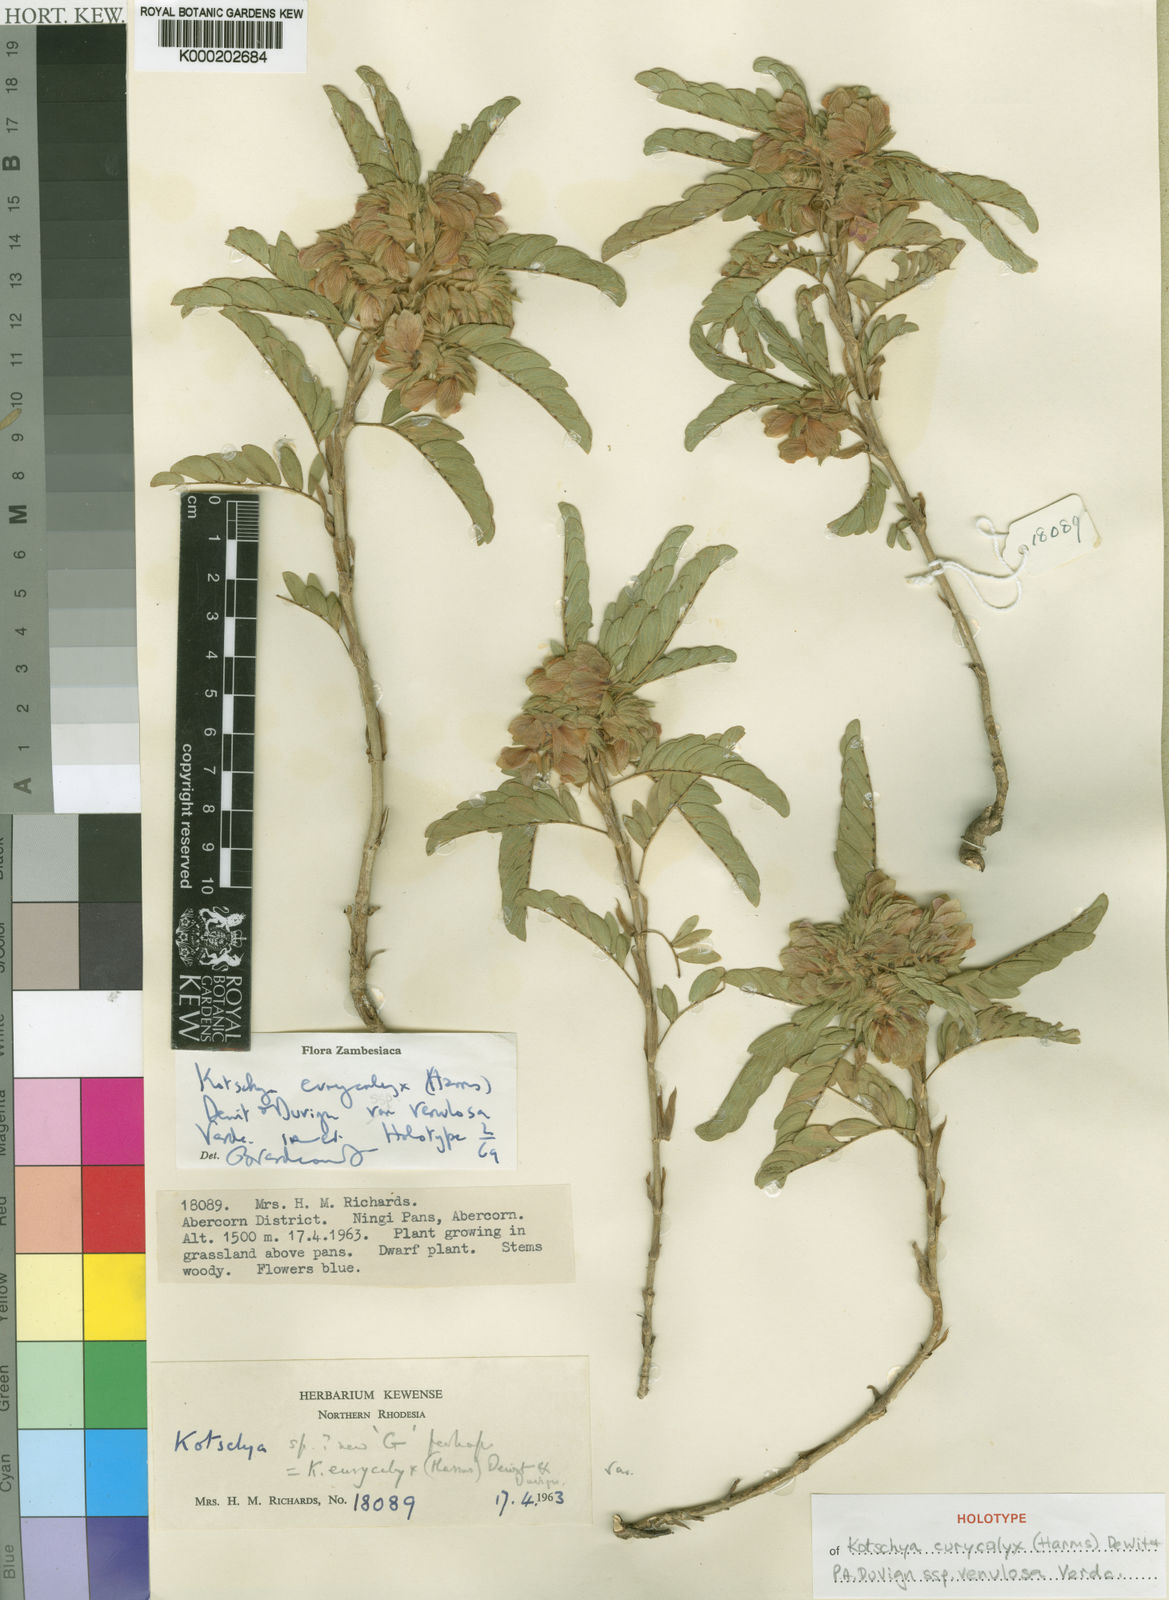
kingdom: Plantae
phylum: Tracheophyta
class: Magnoliopsida
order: Fabales
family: Fabaceae
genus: Kotschya
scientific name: Kotschya eurycalyx
